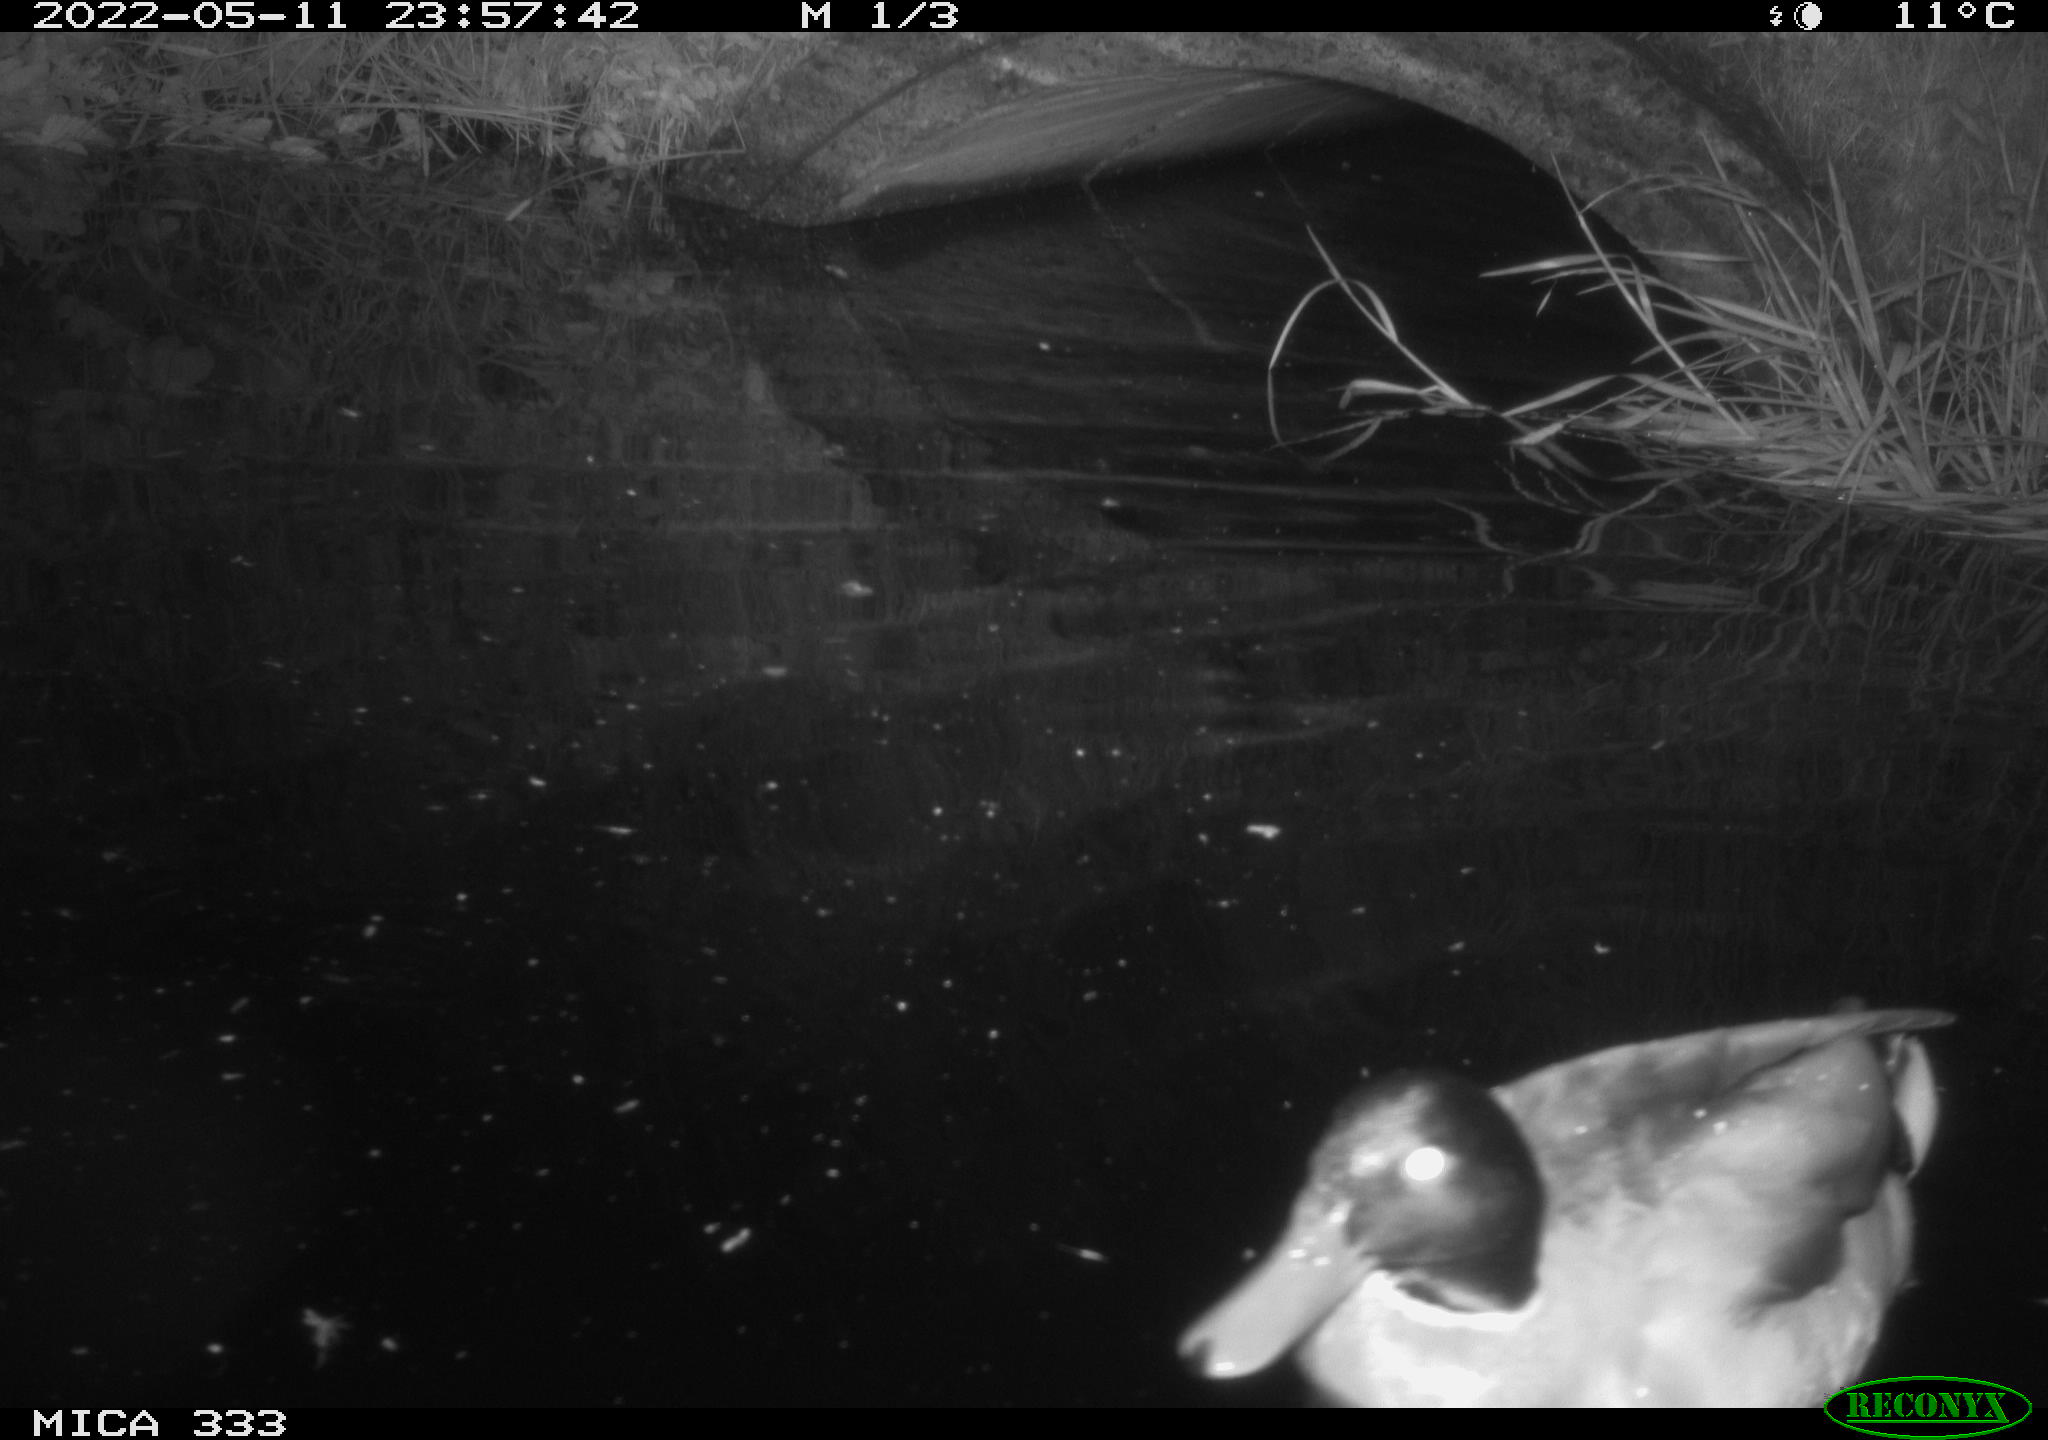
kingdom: Animalia
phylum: Chordata
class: Aves
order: Anseriformes
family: Anatidae
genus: Anas
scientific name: Anas platyrhynchos
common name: Mallard
